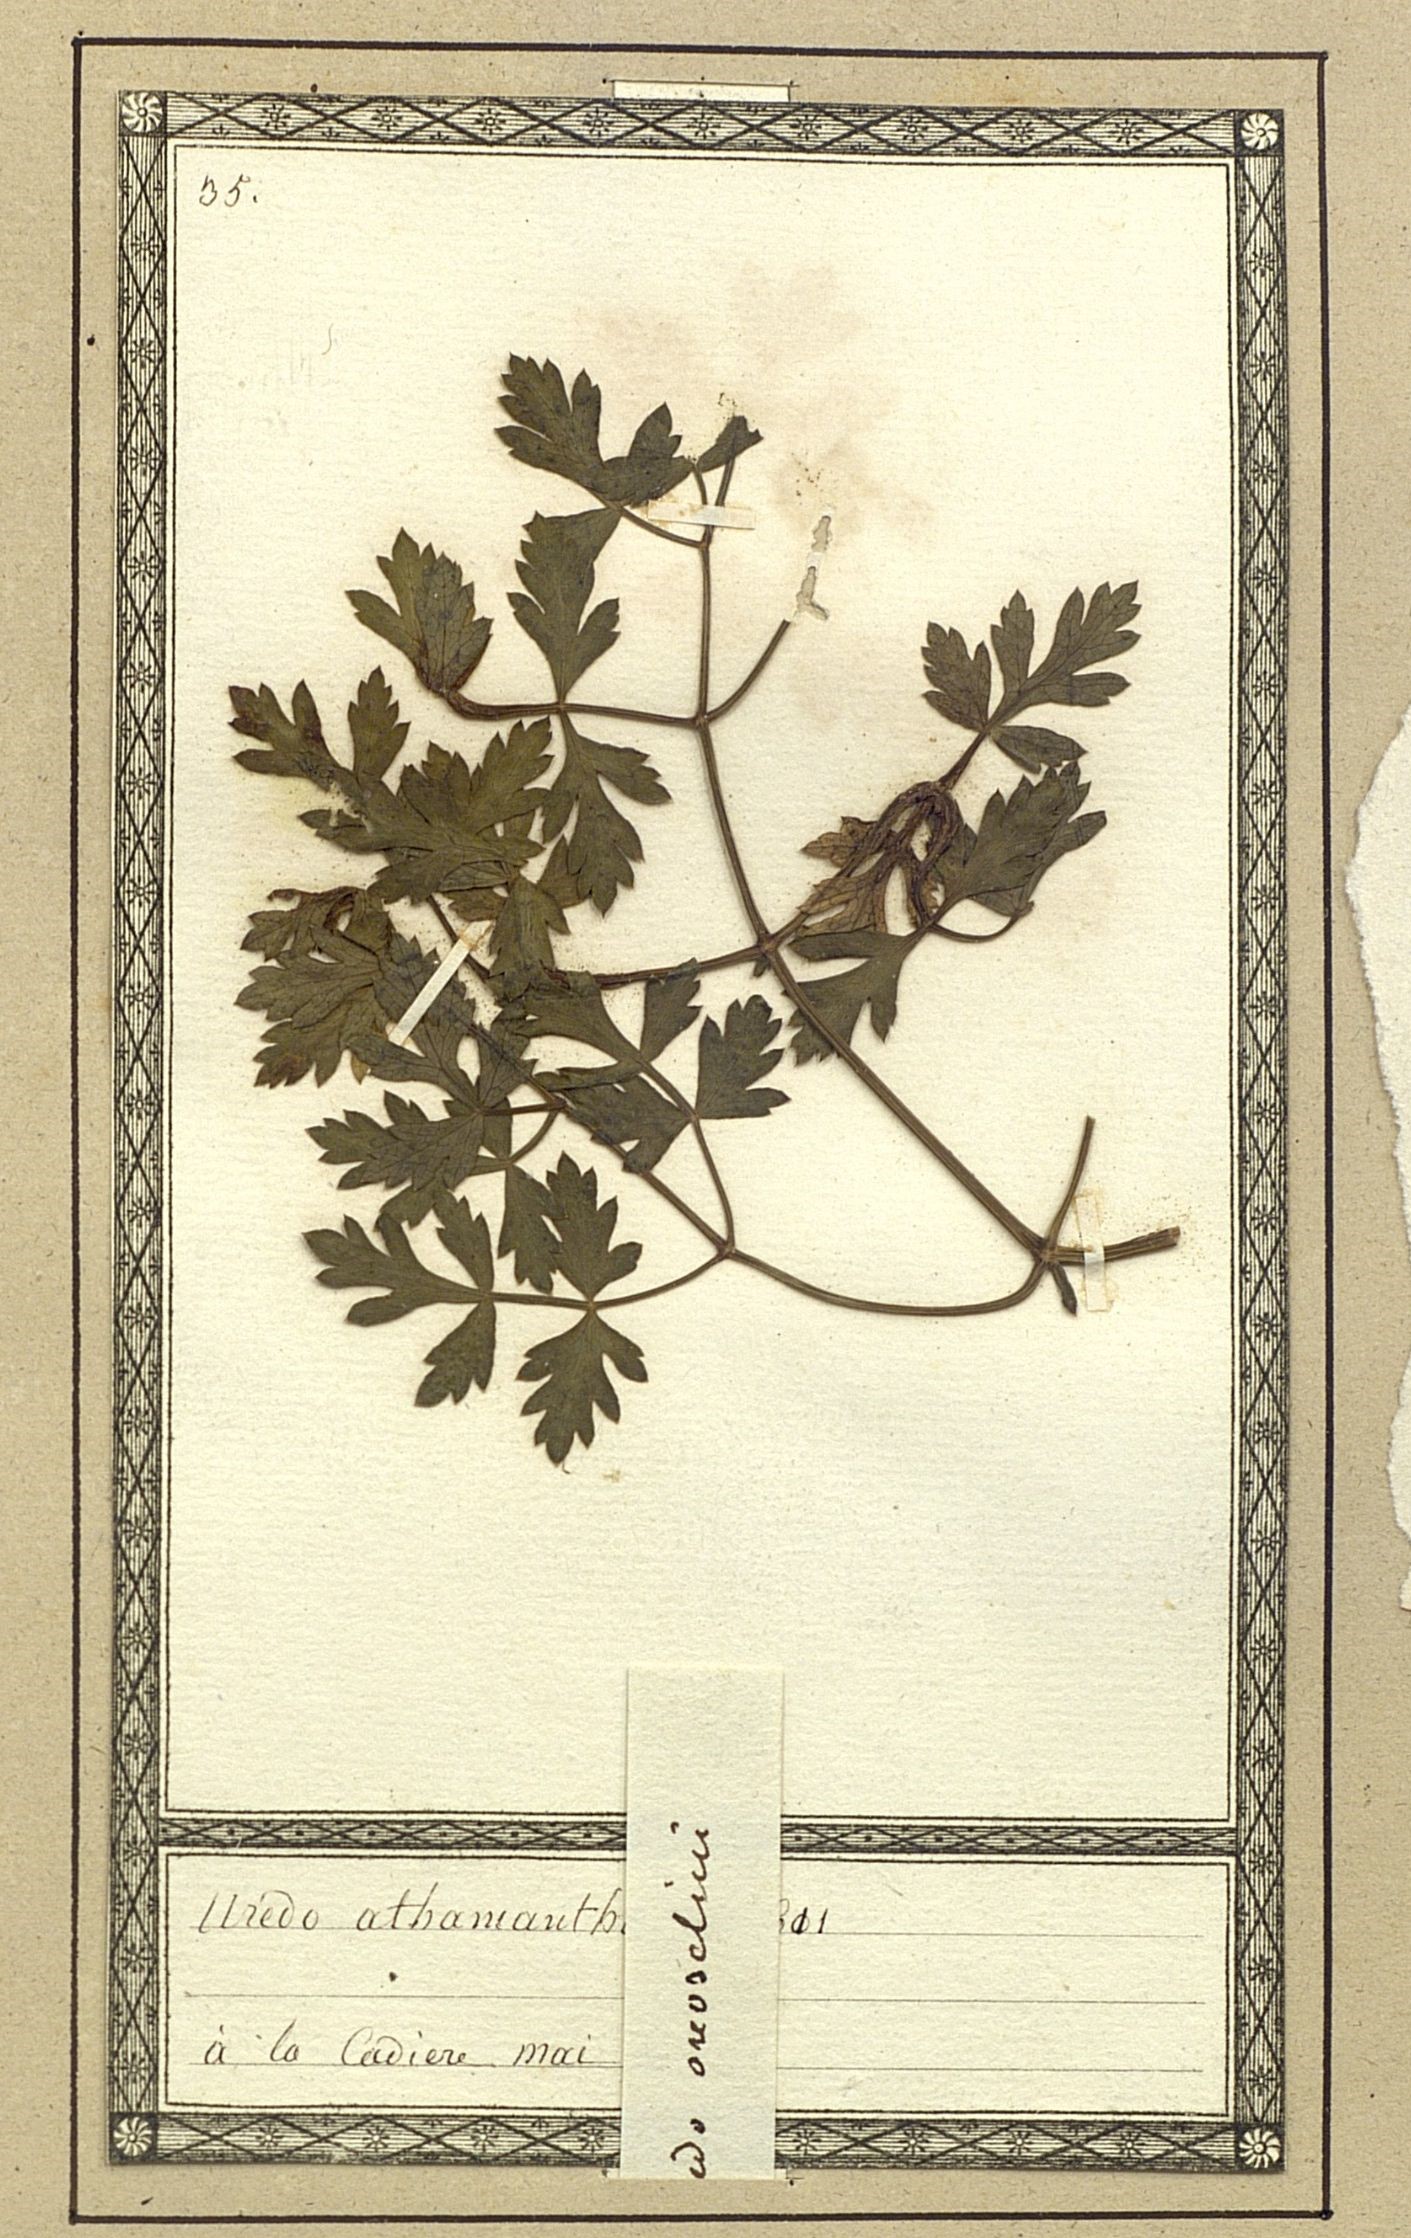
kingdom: Fungi
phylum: Basidiomycota
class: Pucciniomycetes
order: Pucciniales
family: Raveneliaceae
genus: Nyssopsora
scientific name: Nyssopsora echinata
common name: Spignel rust
